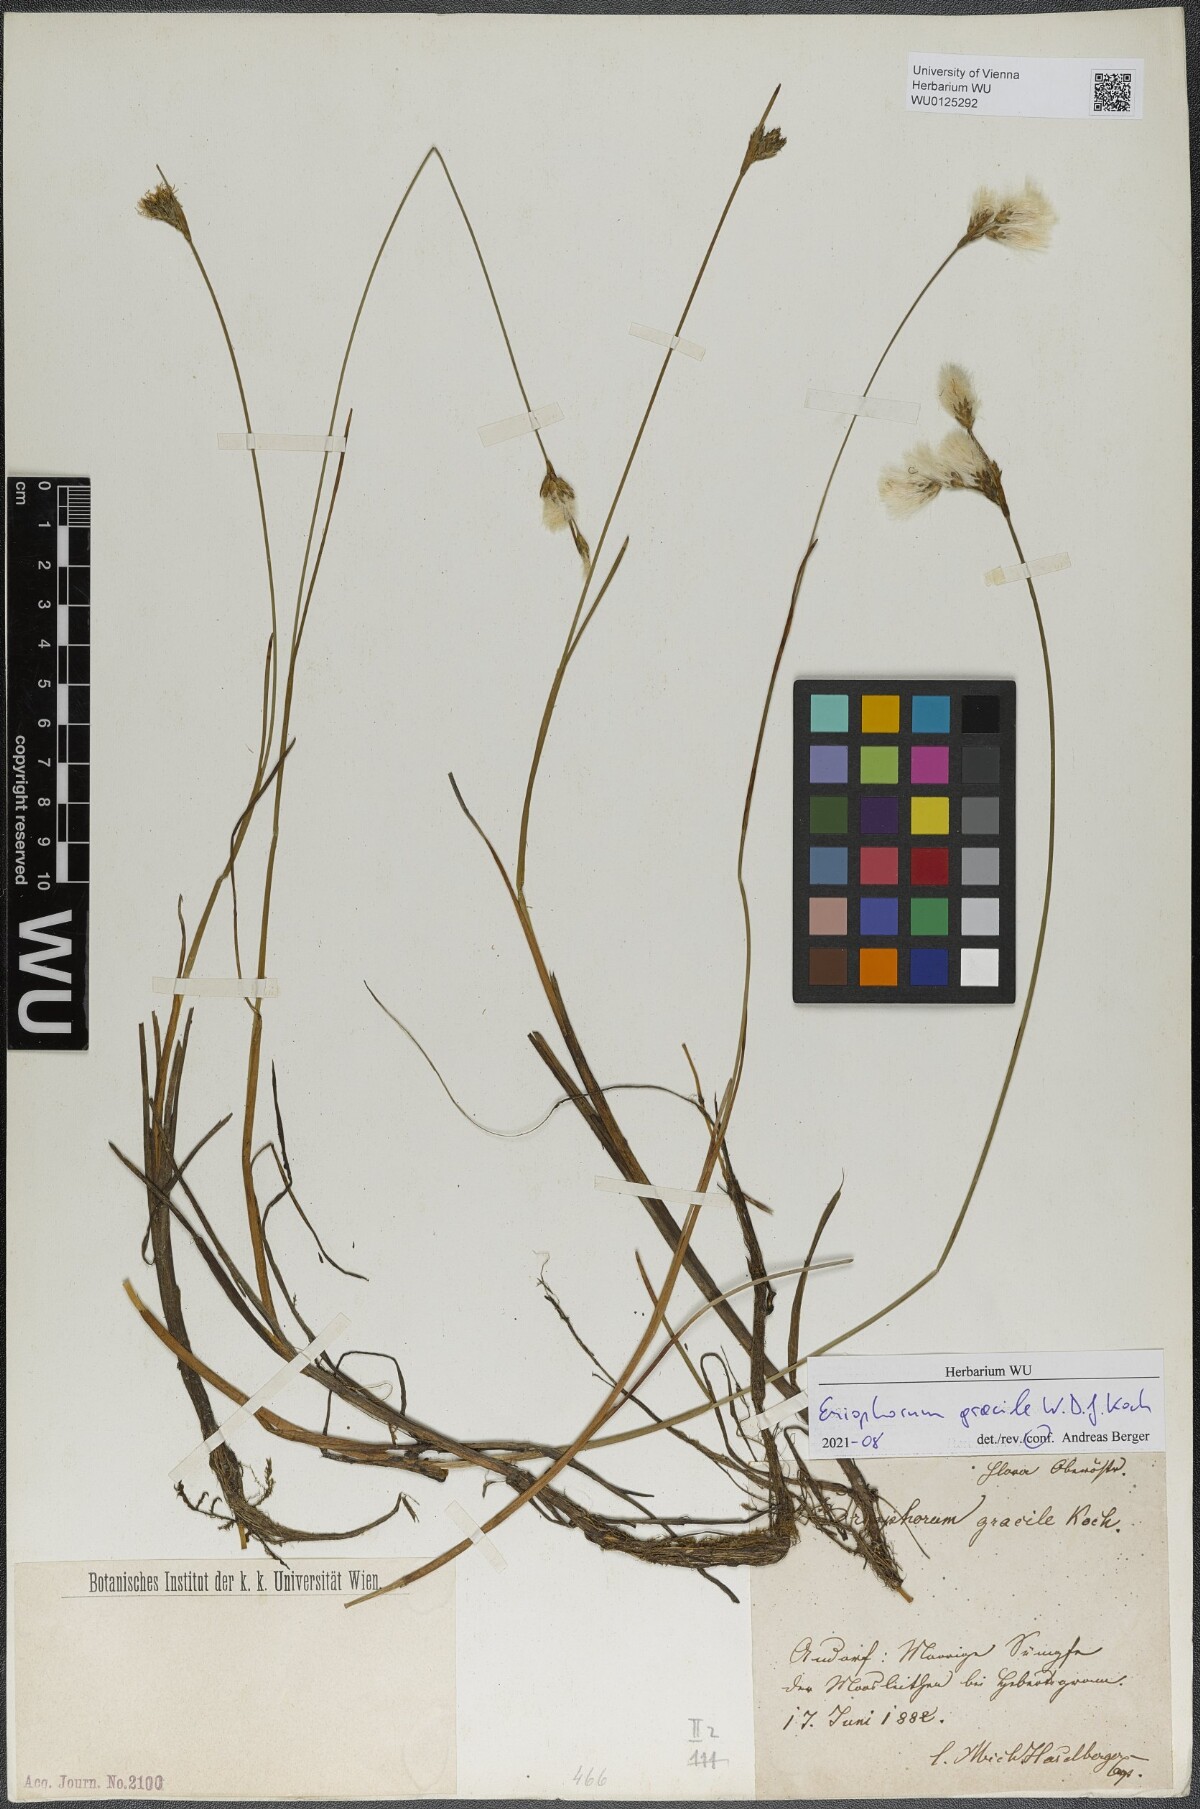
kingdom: Plantae
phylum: Tracheophyta
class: Liliopsida
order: Poales
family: Cyperaceae
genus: Eriophorum
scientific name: Eriophorum gracile
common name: Slender cottongrass
